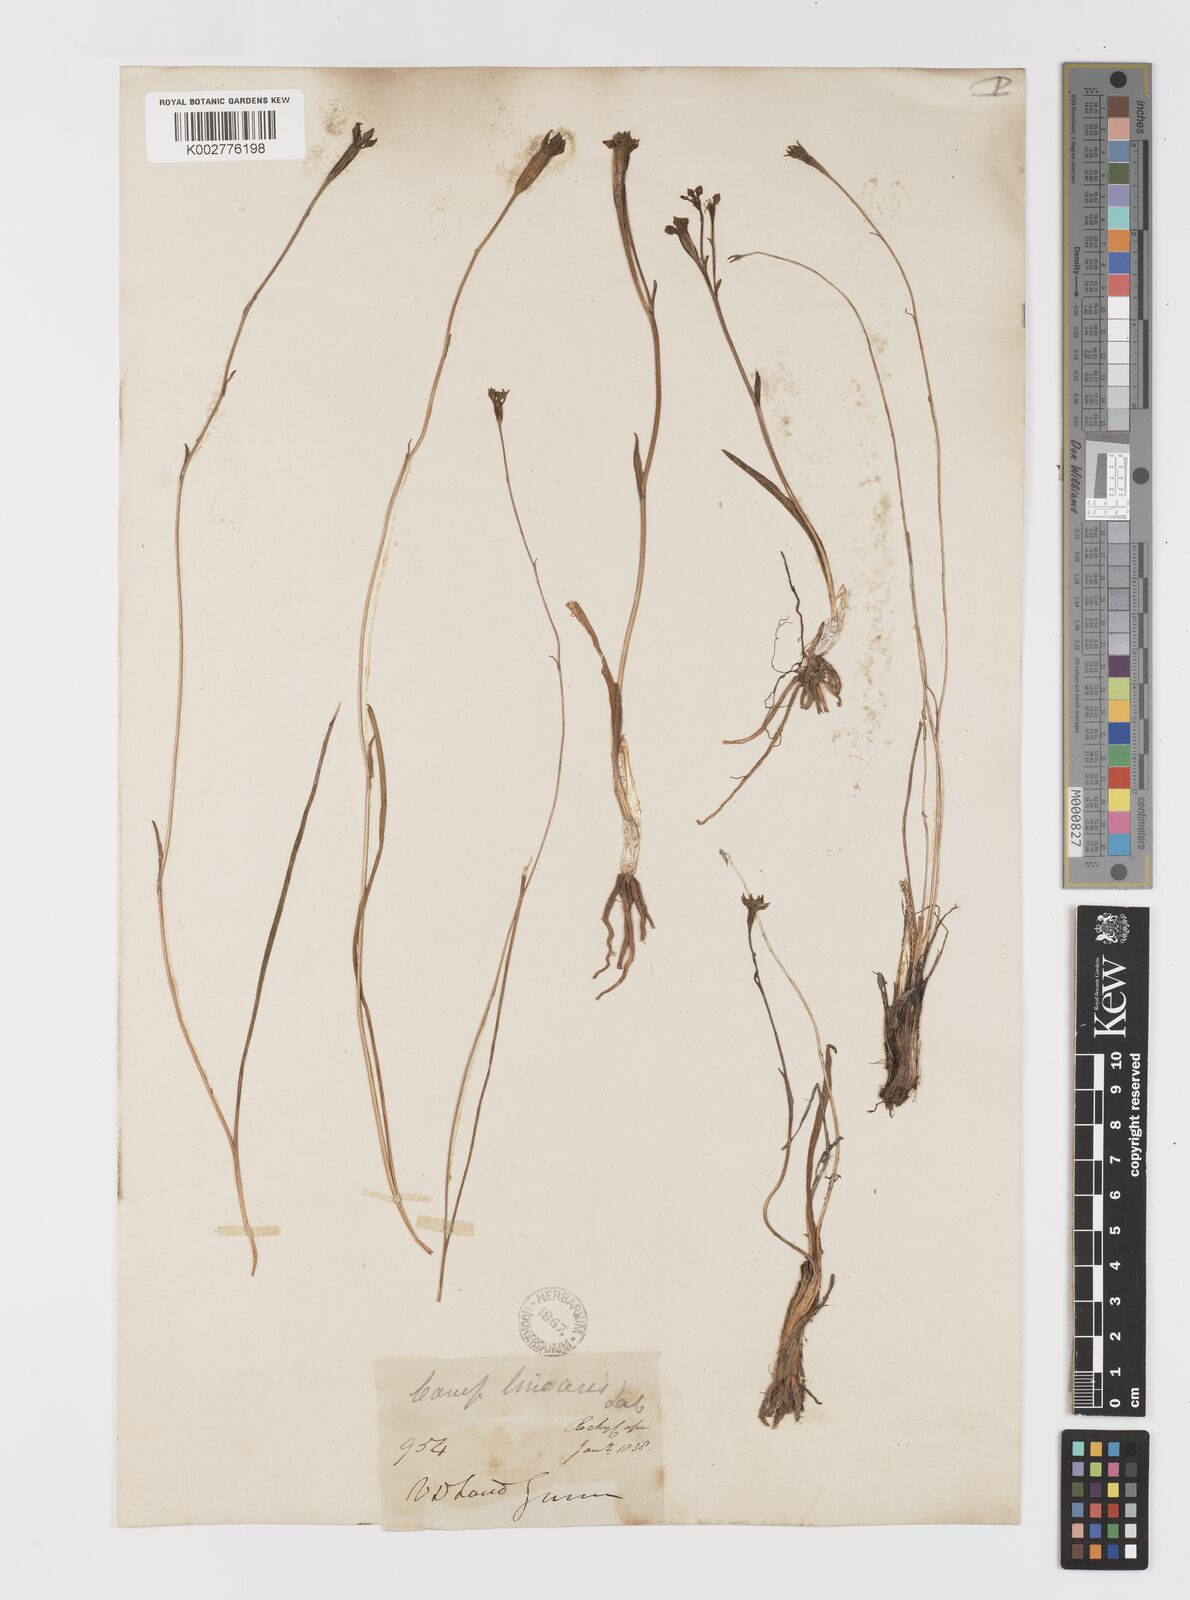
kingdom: Plantae
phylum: Tracheophyta
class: Liliopsida
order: Liliales
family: Campynemataceae
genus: Campynema
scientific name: Campynema lineare
